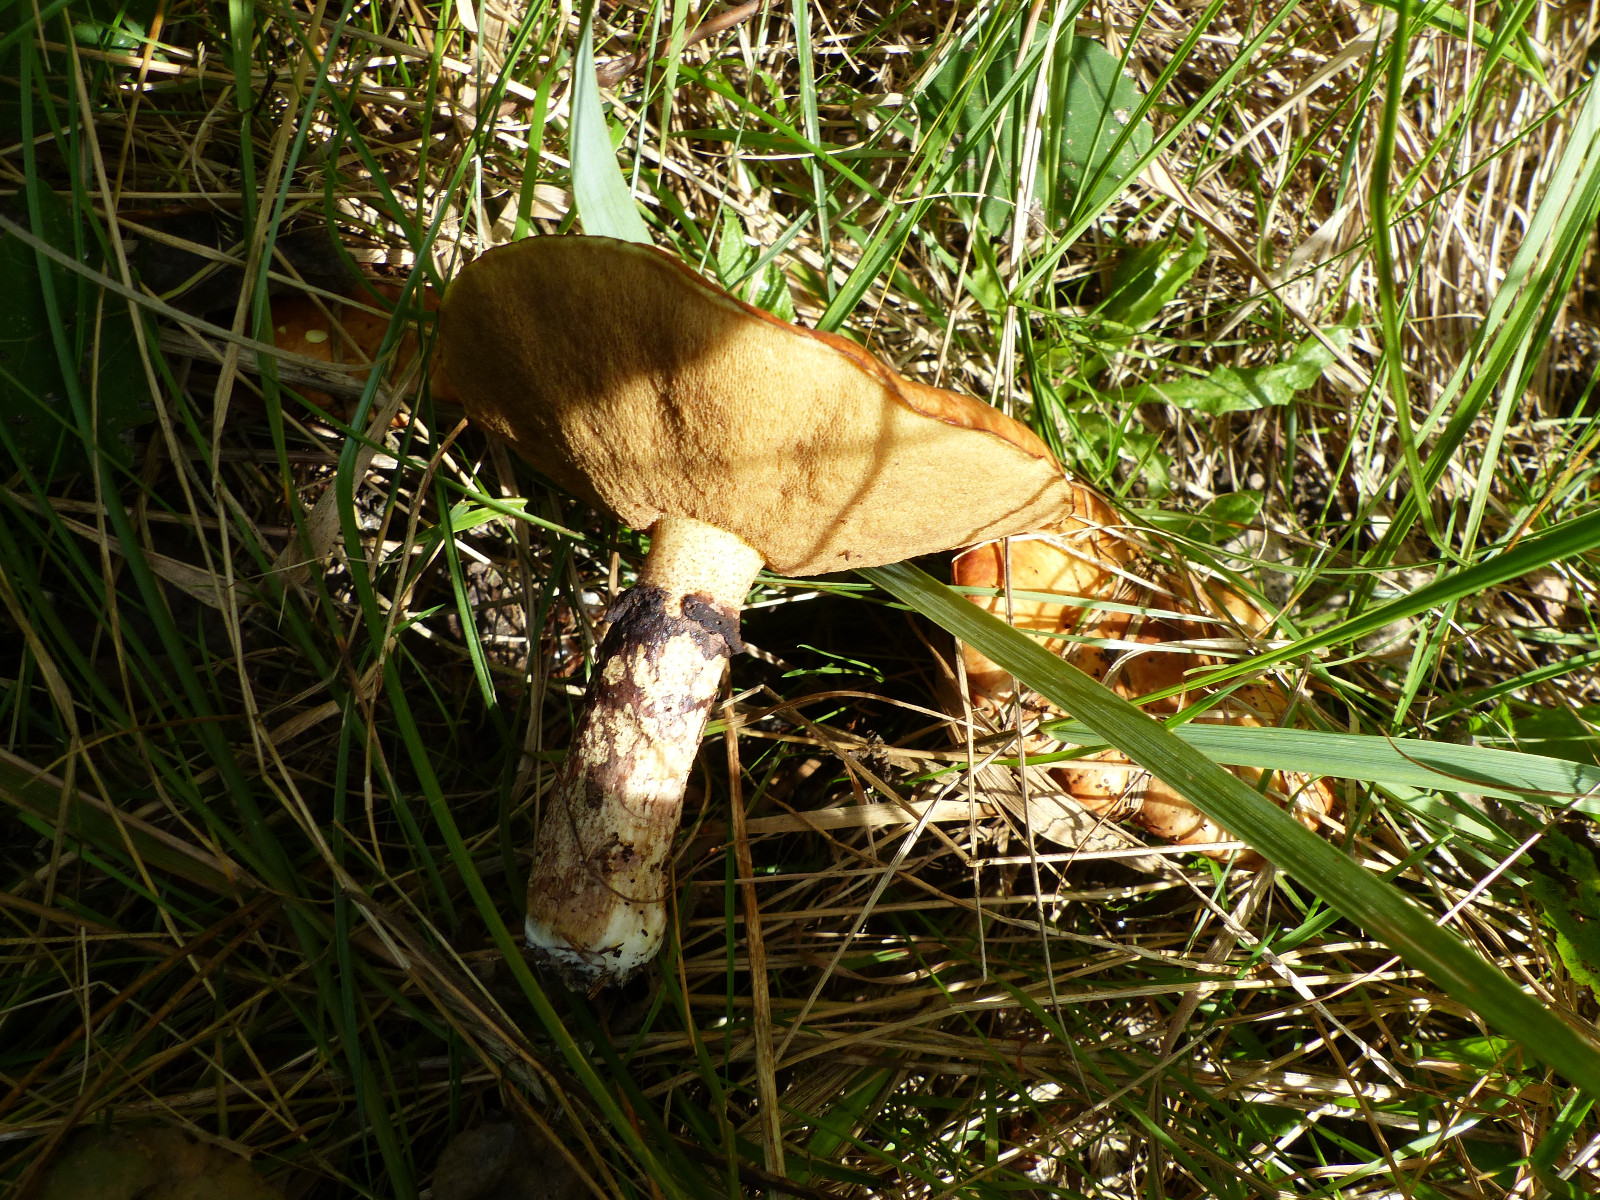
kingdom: Fungi
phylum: Basidiomycota
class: Agaricomycetes
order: Boletales
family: Suillaceae
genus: Suillus
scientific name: Suillus luteus
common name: brungul slimrørhat
